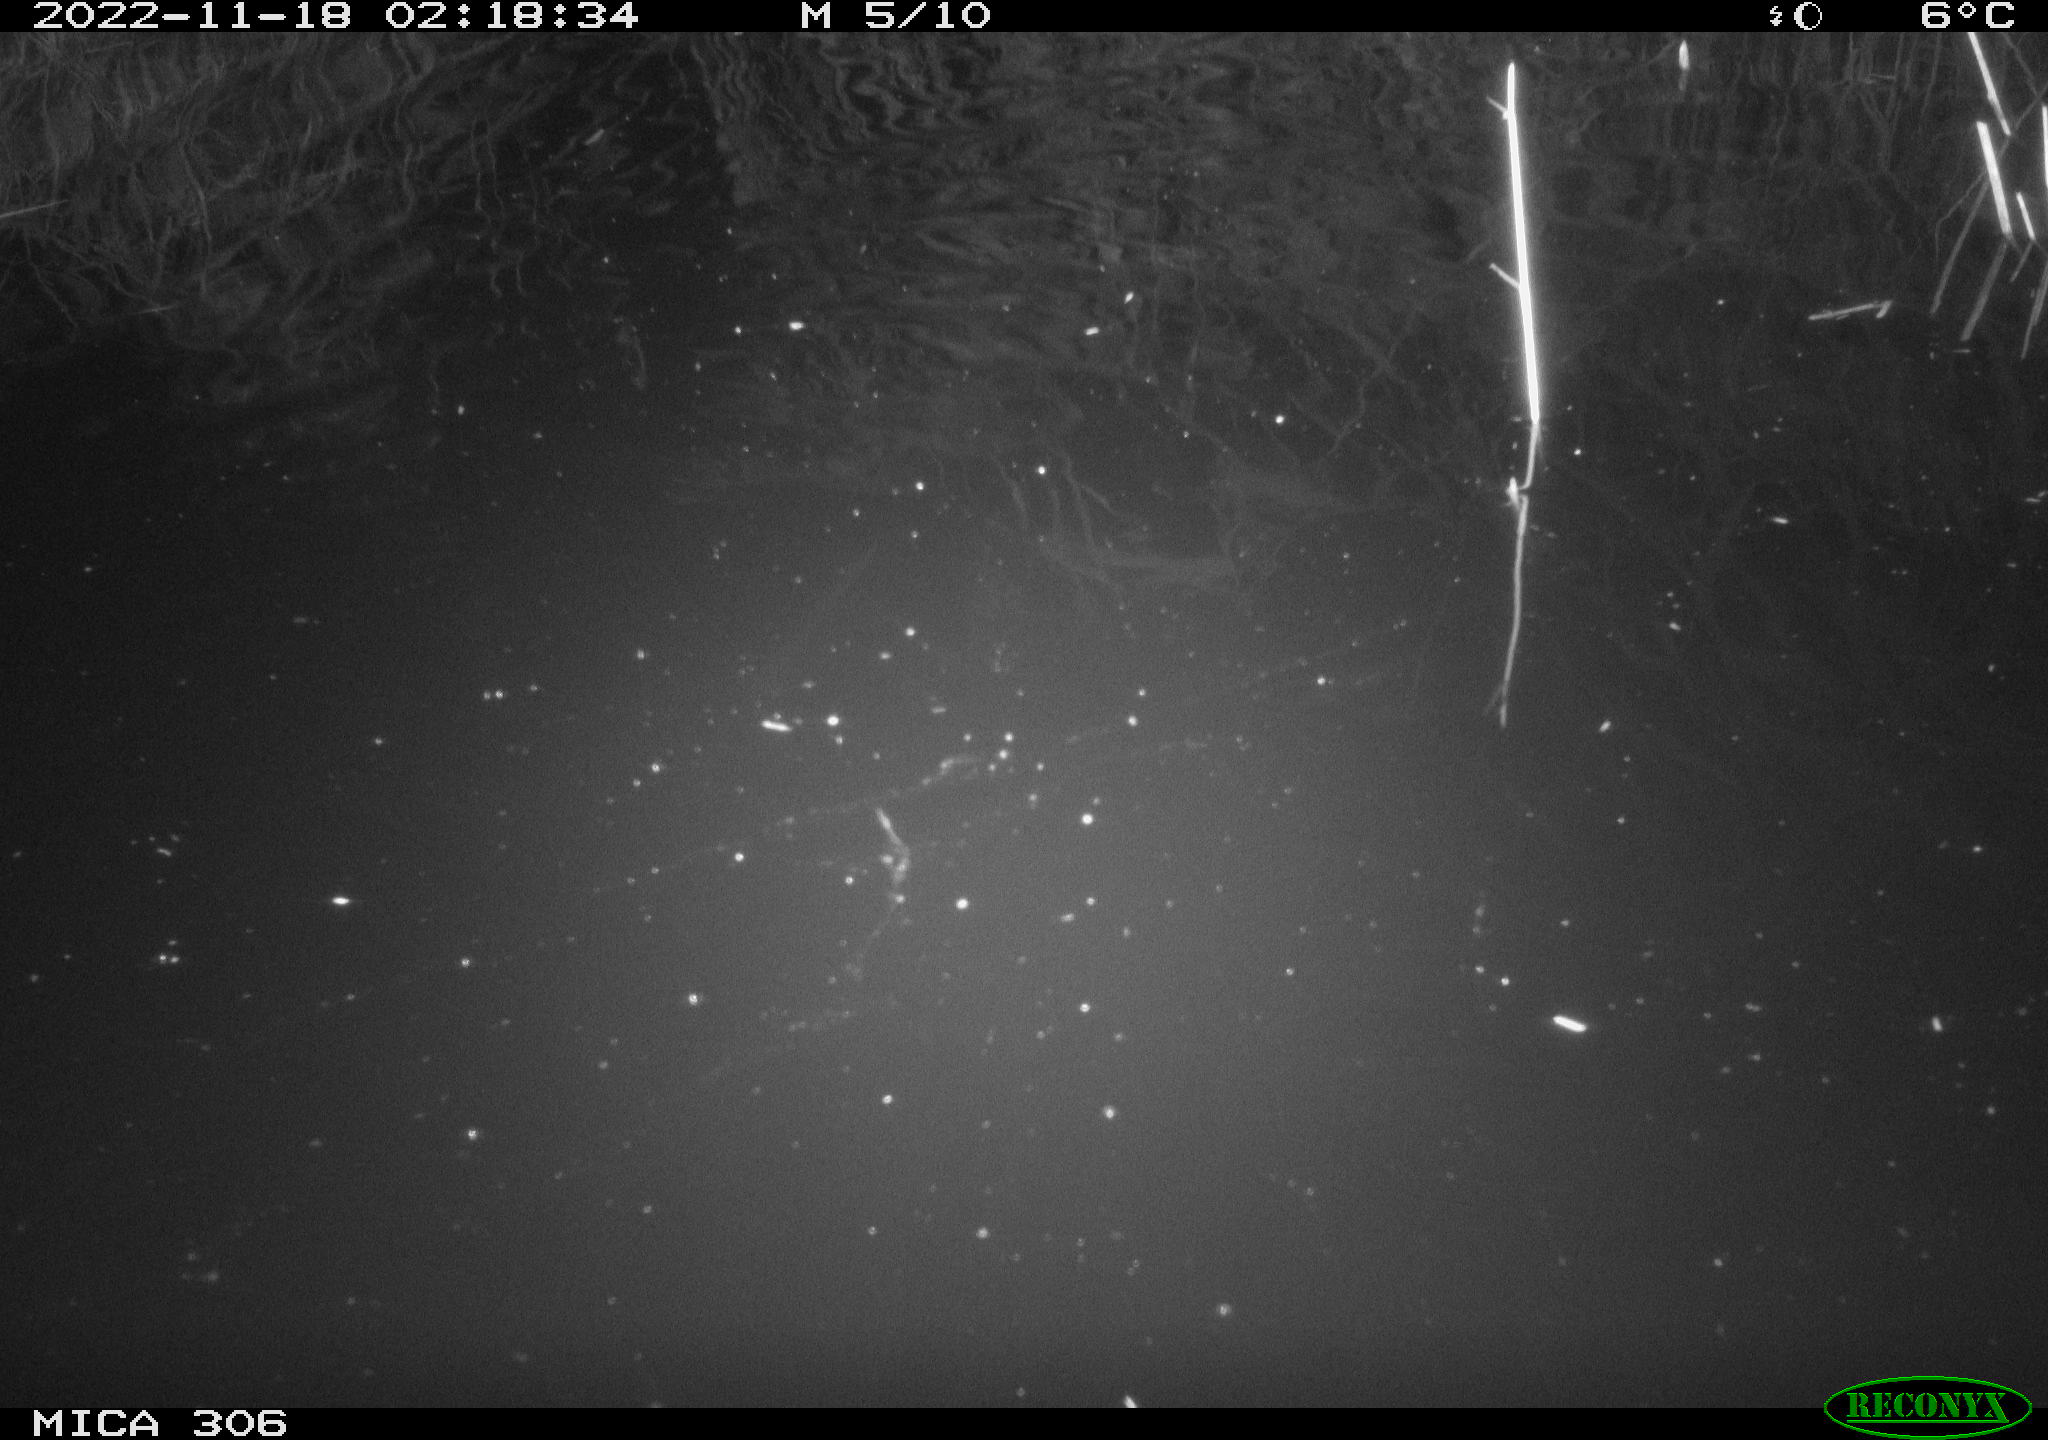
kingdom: Animalia
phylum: Chordata
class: Mammalia
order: Rodentia
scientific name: Rodentia
